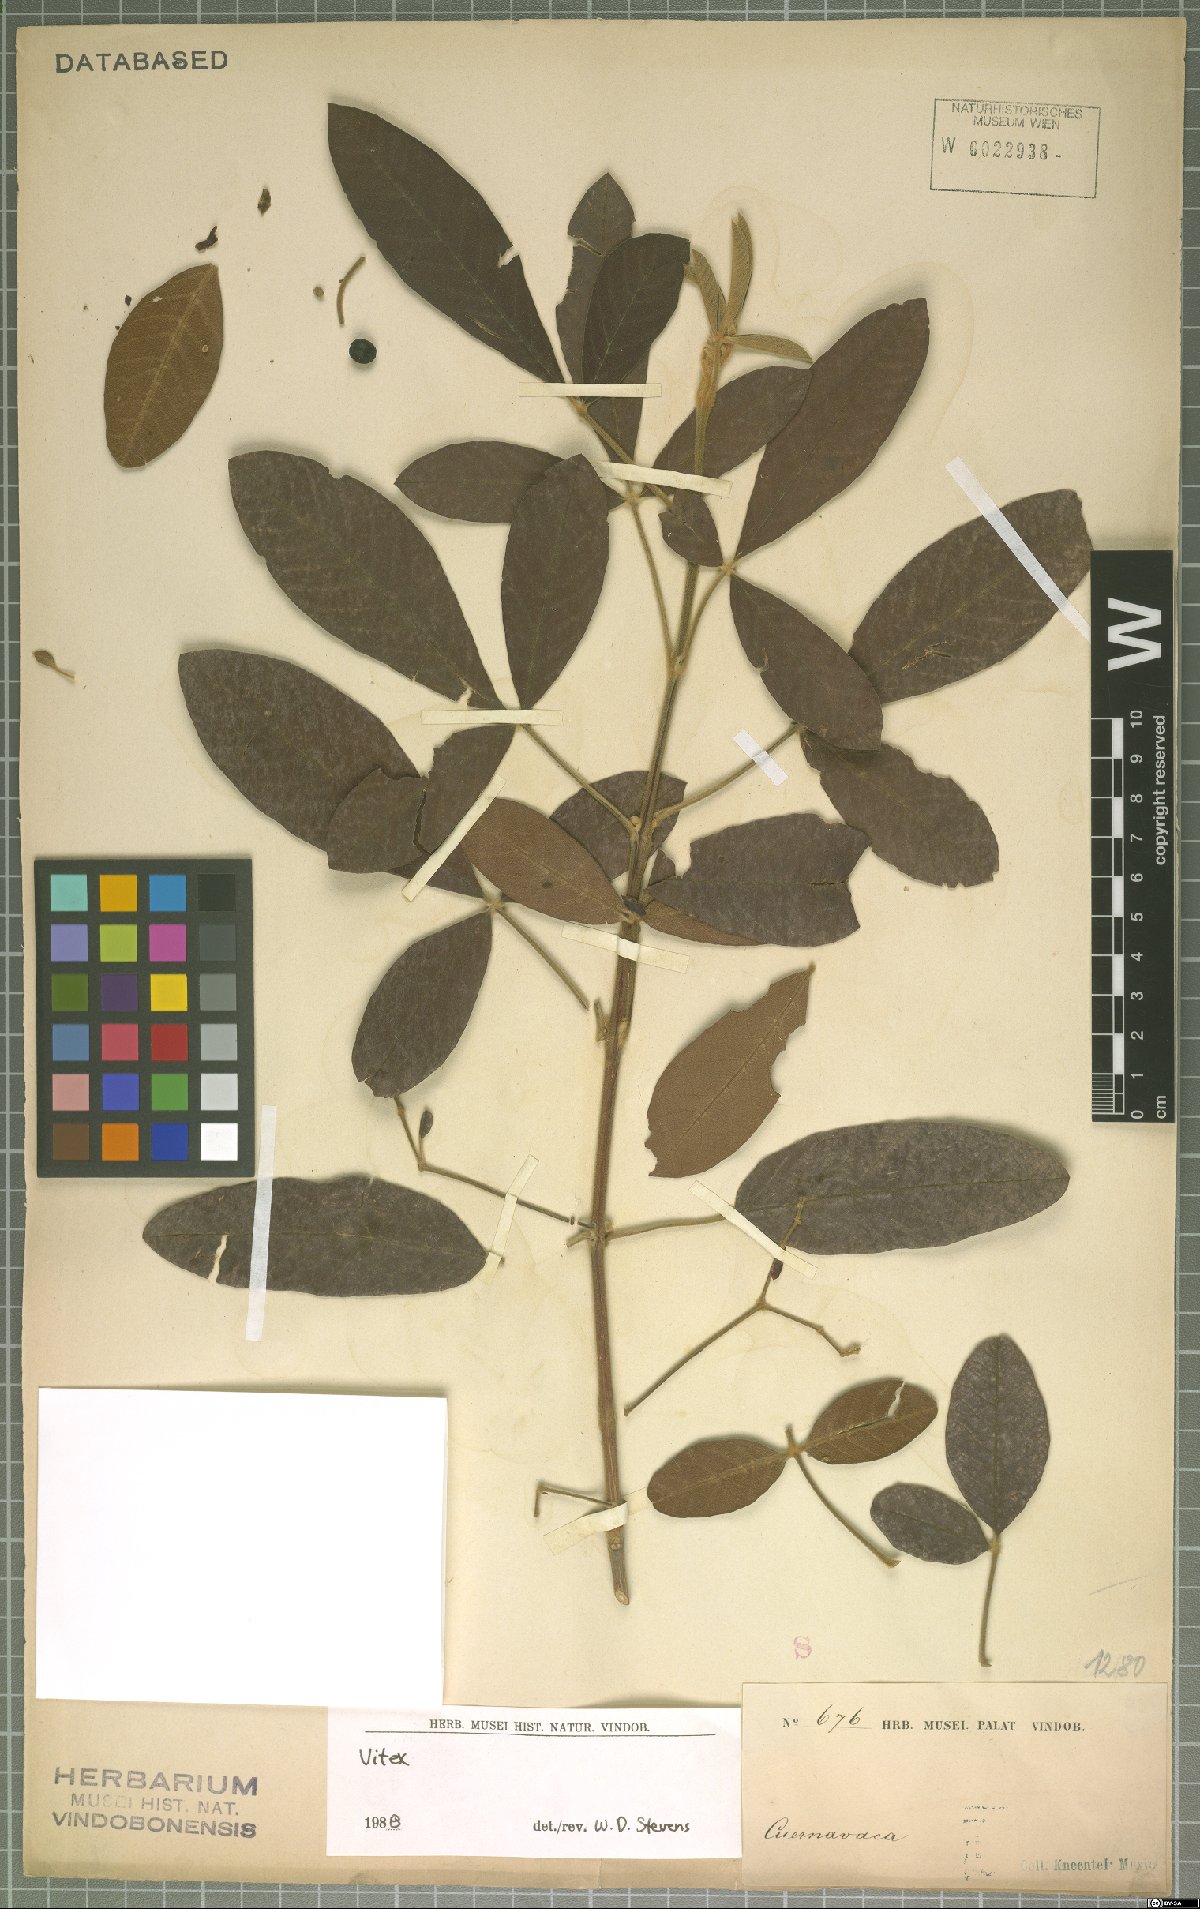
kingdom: Plantae
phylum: Tracheophyta
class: Magnoliopsida
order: Lamiales
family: Lamiaceae
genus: Vitex
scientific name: Vitex
